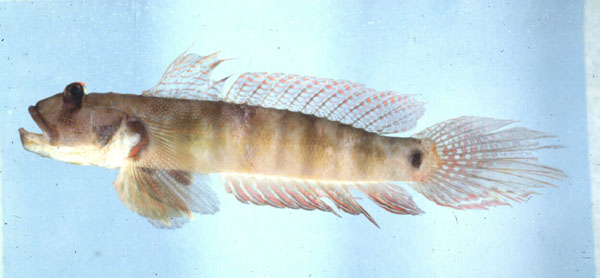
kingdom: Animalia
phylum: Chordata
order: Perciformes
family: Gobiidae
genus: Oxyurichthys
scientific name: Oxyurichthys papuensis
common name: Frogface goby
